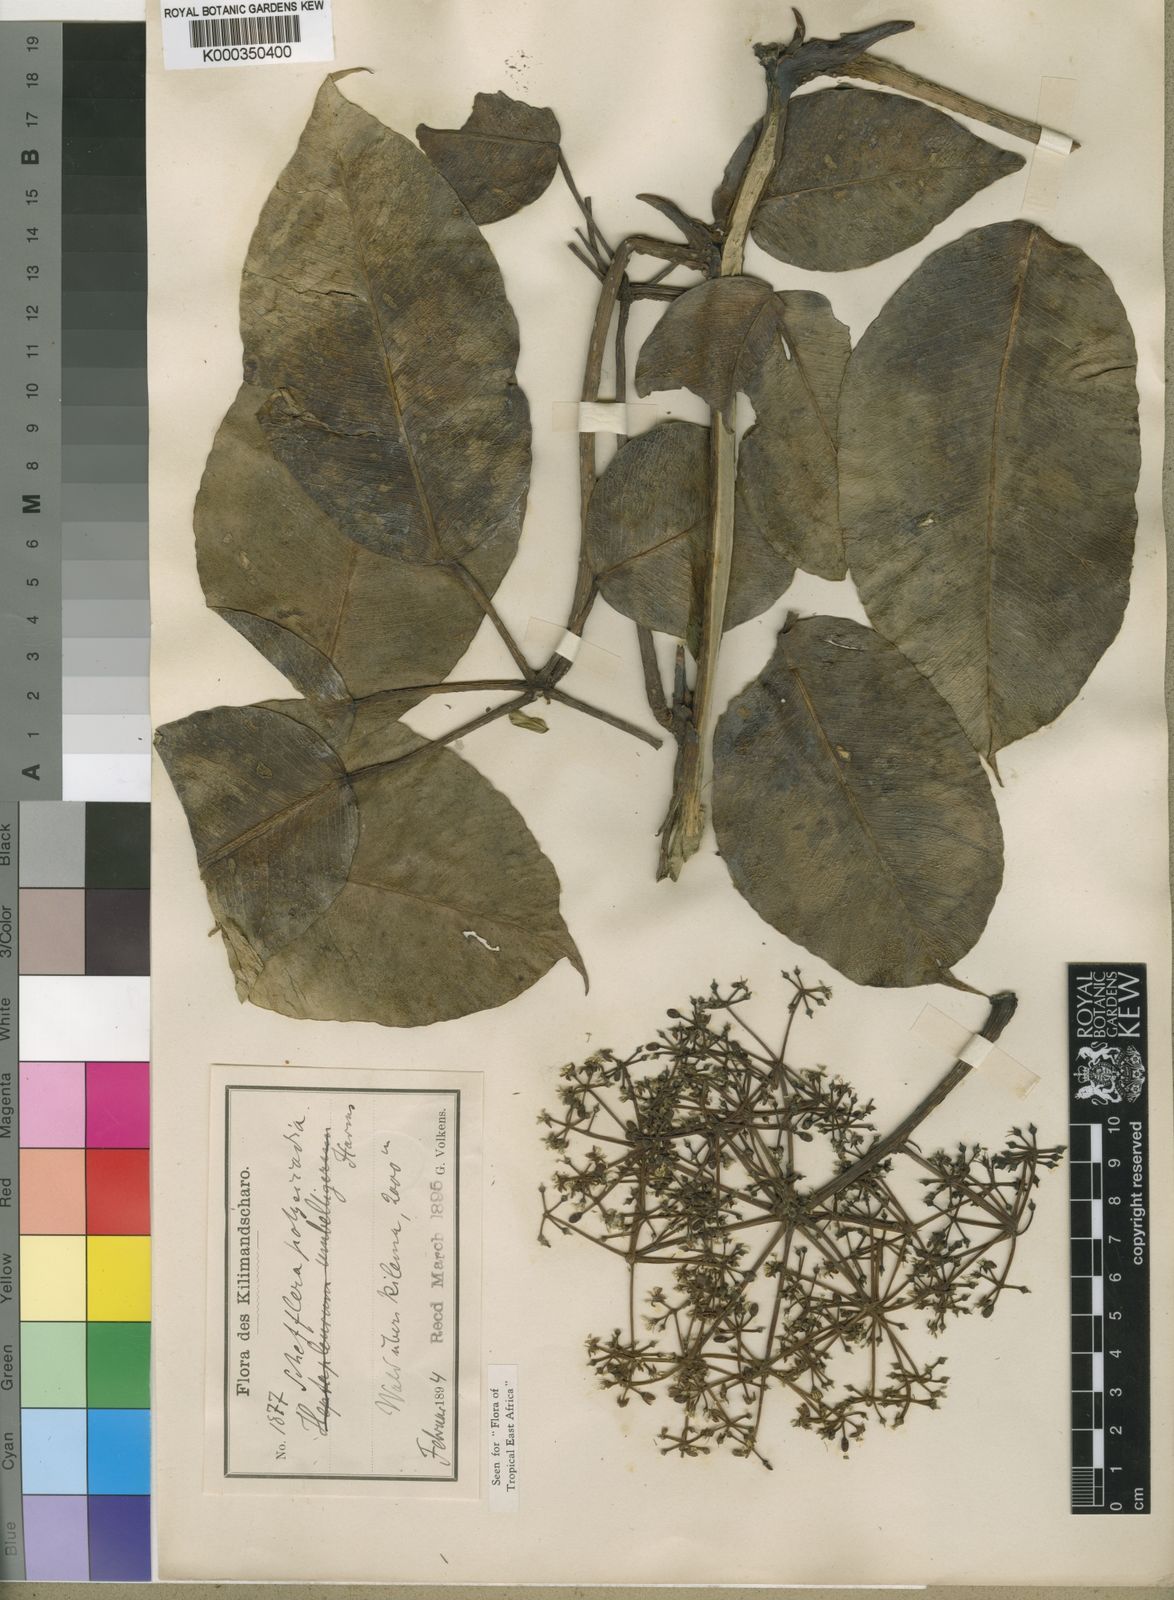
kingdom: Plantae
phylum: Tracheophyta
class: Magnoliopsida
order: Apiales
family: Araliaceae
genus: Astropanax
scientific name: Astropanax myrianthus
